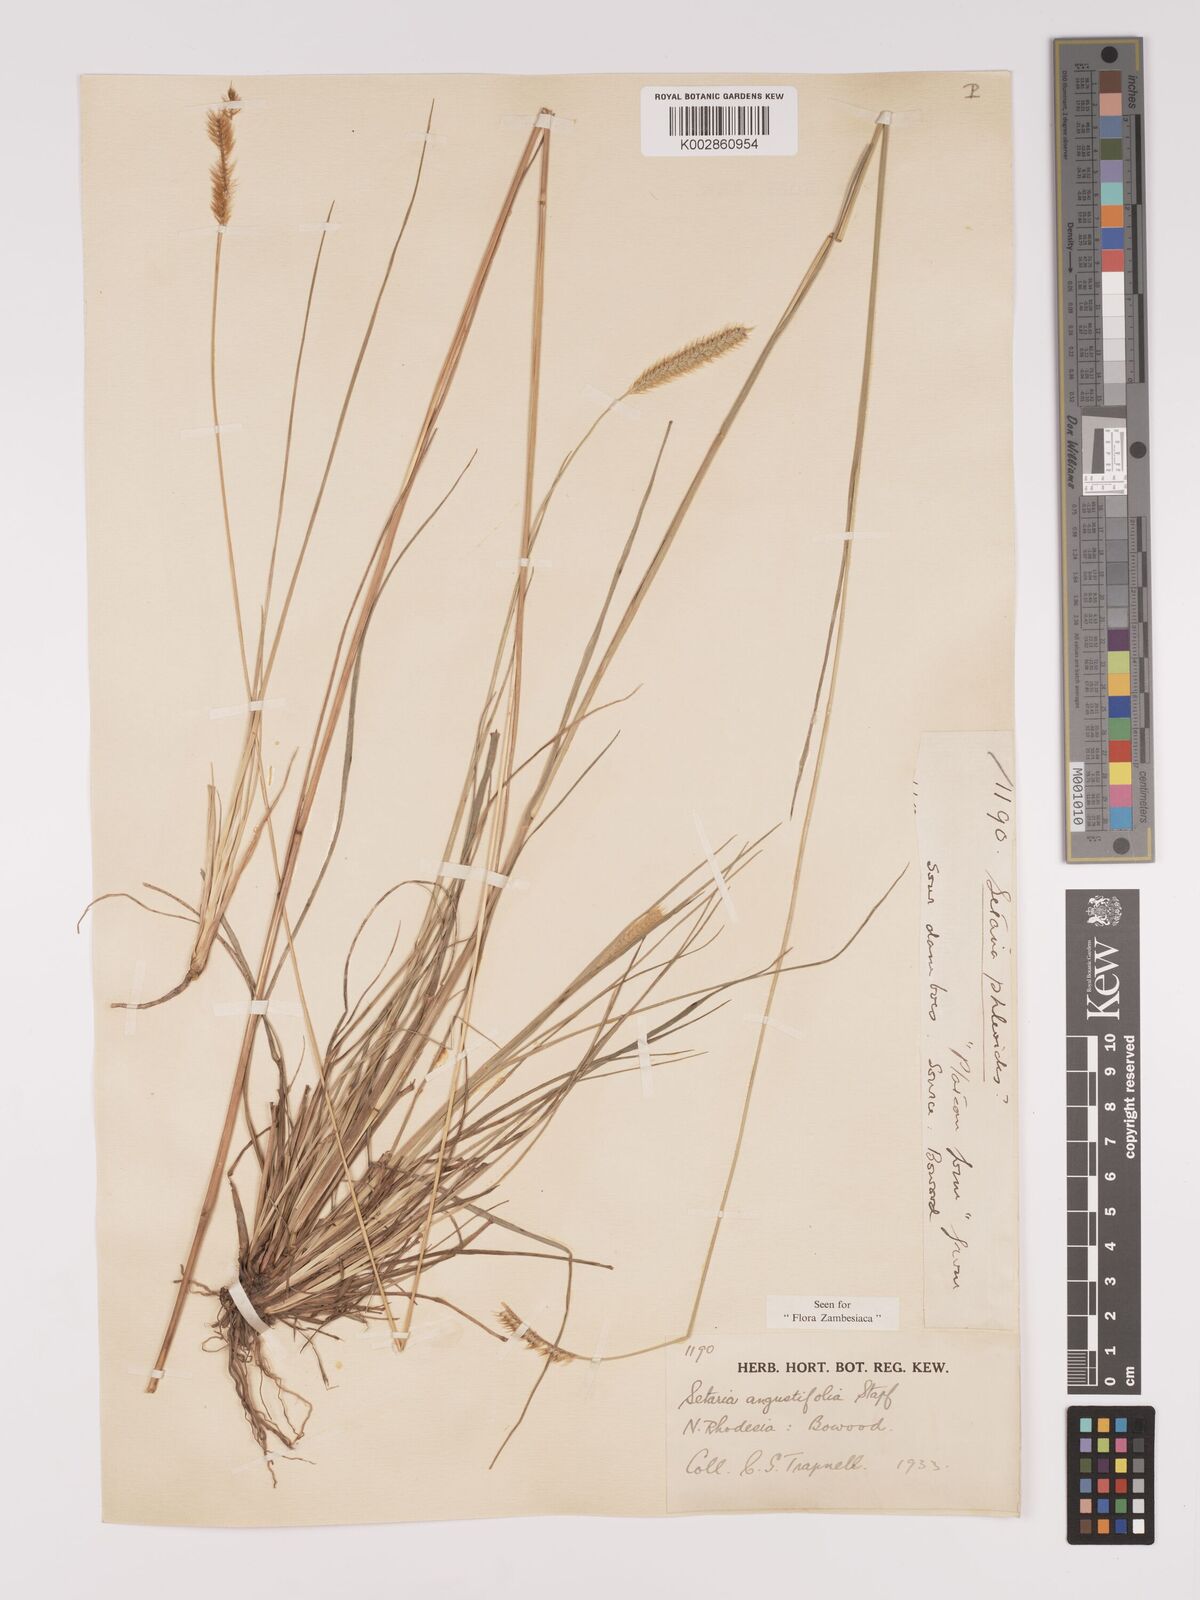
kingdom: Plantae
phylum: Tracheophyta
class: Liliopsida
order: Poales
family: Poaceae
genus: Setaria
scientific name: Setaria
